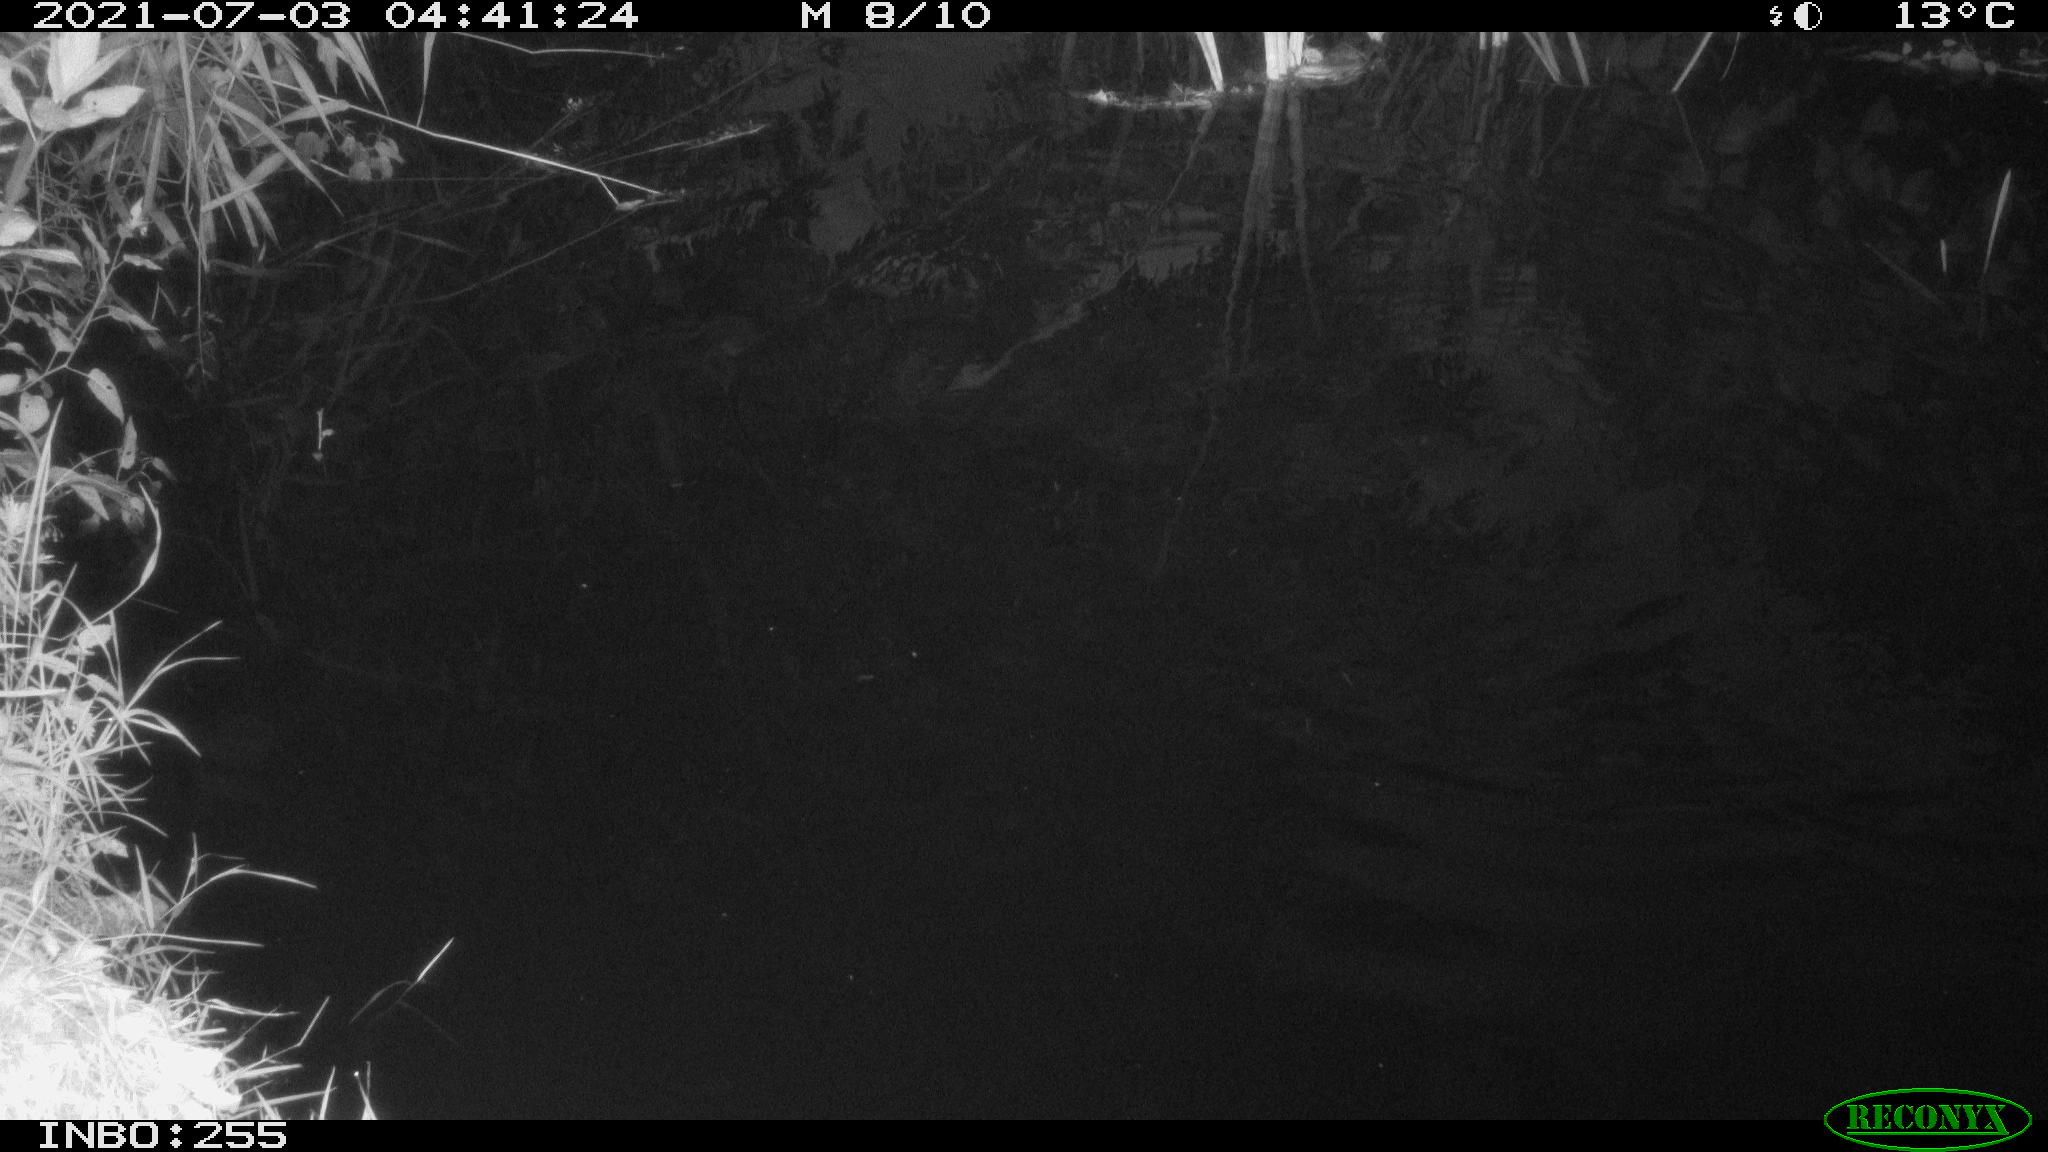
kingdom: Animalia
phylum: Chordata
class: Aves
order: Anseriformes
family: Anatidae
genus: Anas
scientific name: Anas platyrhynchos
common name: Mallard
